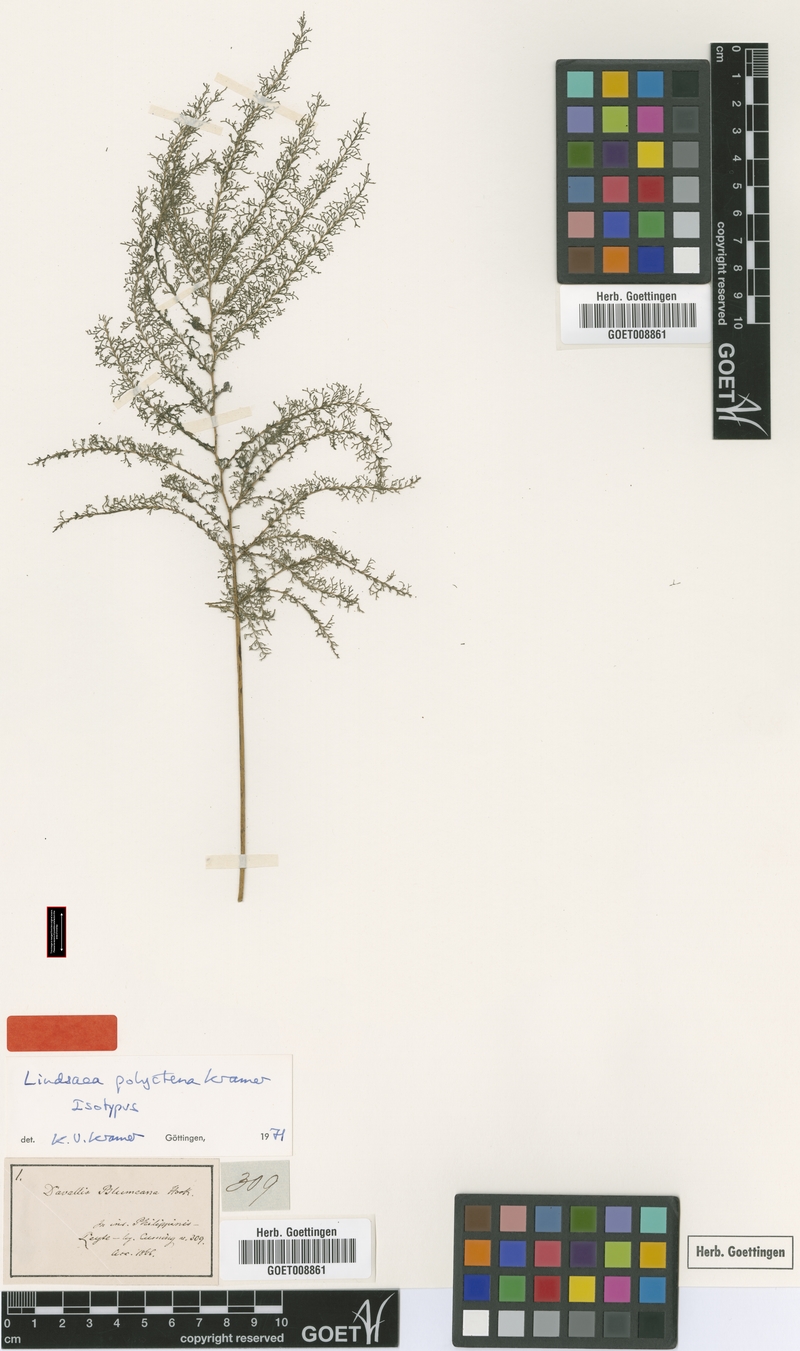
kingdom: Plantae
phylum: Tracheophyta
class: Polypodiopsida
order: Polypodiales
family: Lindsaeaceae
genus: Lindsaea
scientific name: Lindsaea tenuifolia
